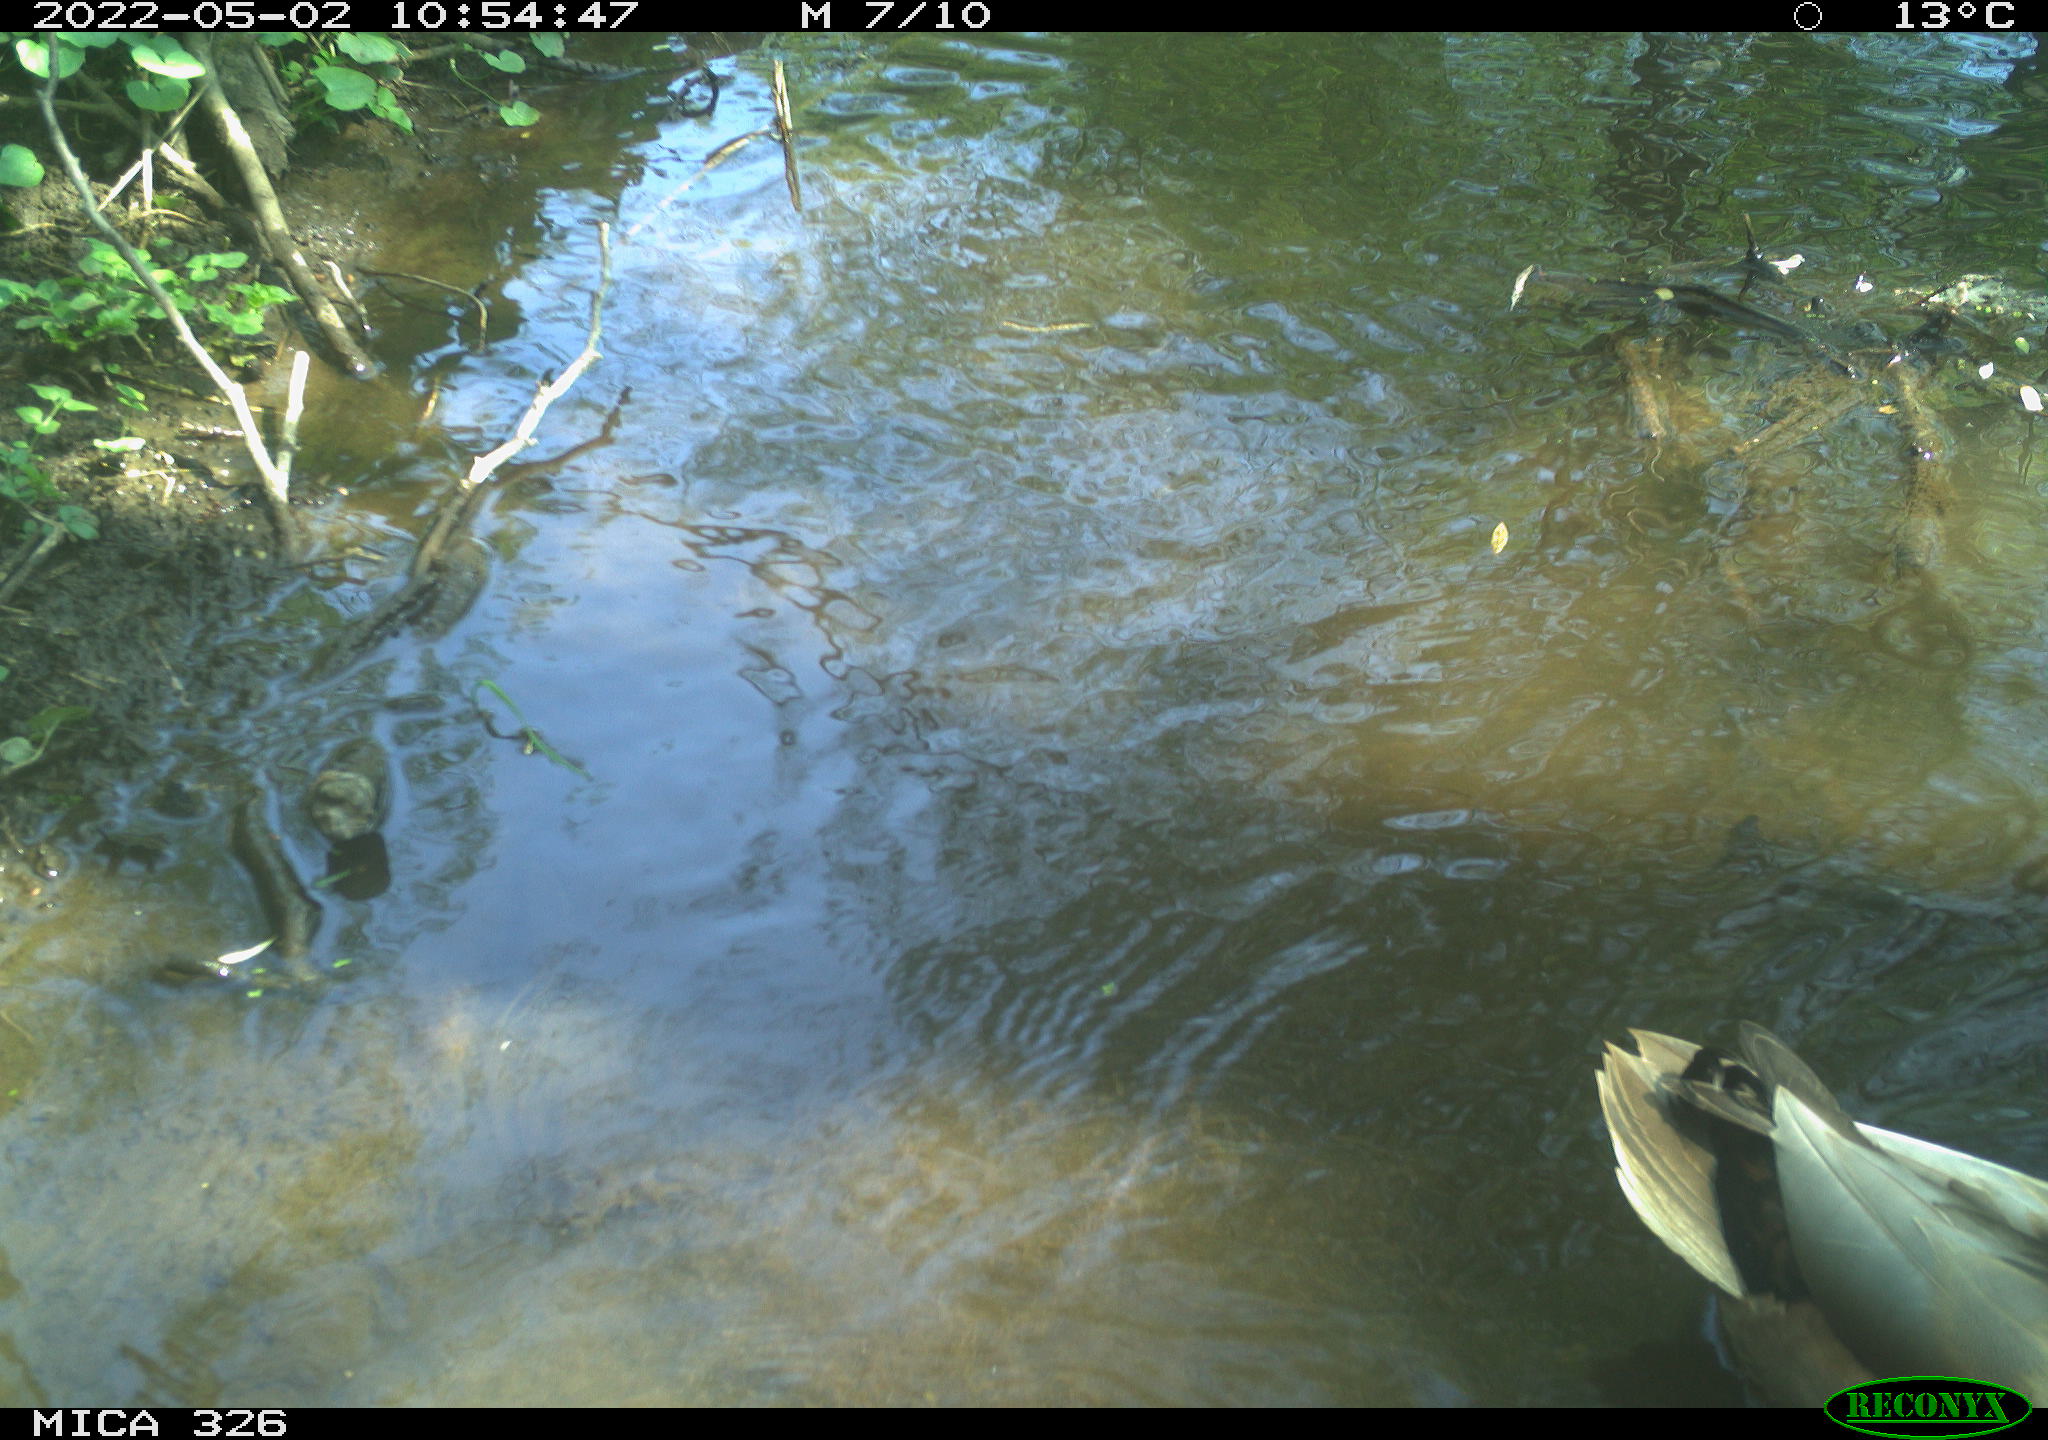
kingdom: Animalia
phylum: Chordata
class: Aves
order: Anseriformes
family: Anatidae
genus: Anas
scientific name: Anas
